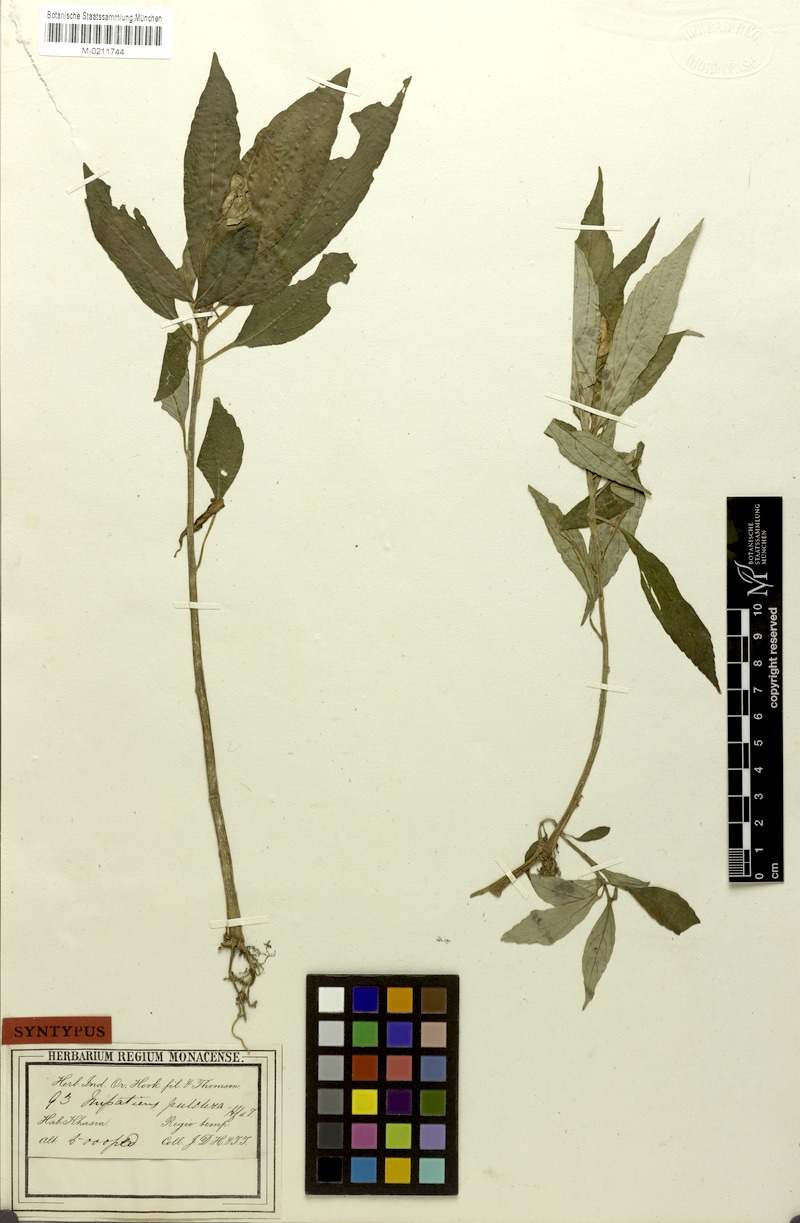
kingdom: Plantae
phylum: Tracheophyta
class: Magnoliopsida
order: Ericales
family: Balsaminaceae
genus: Impatiens
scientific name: Impatiens pulchra
